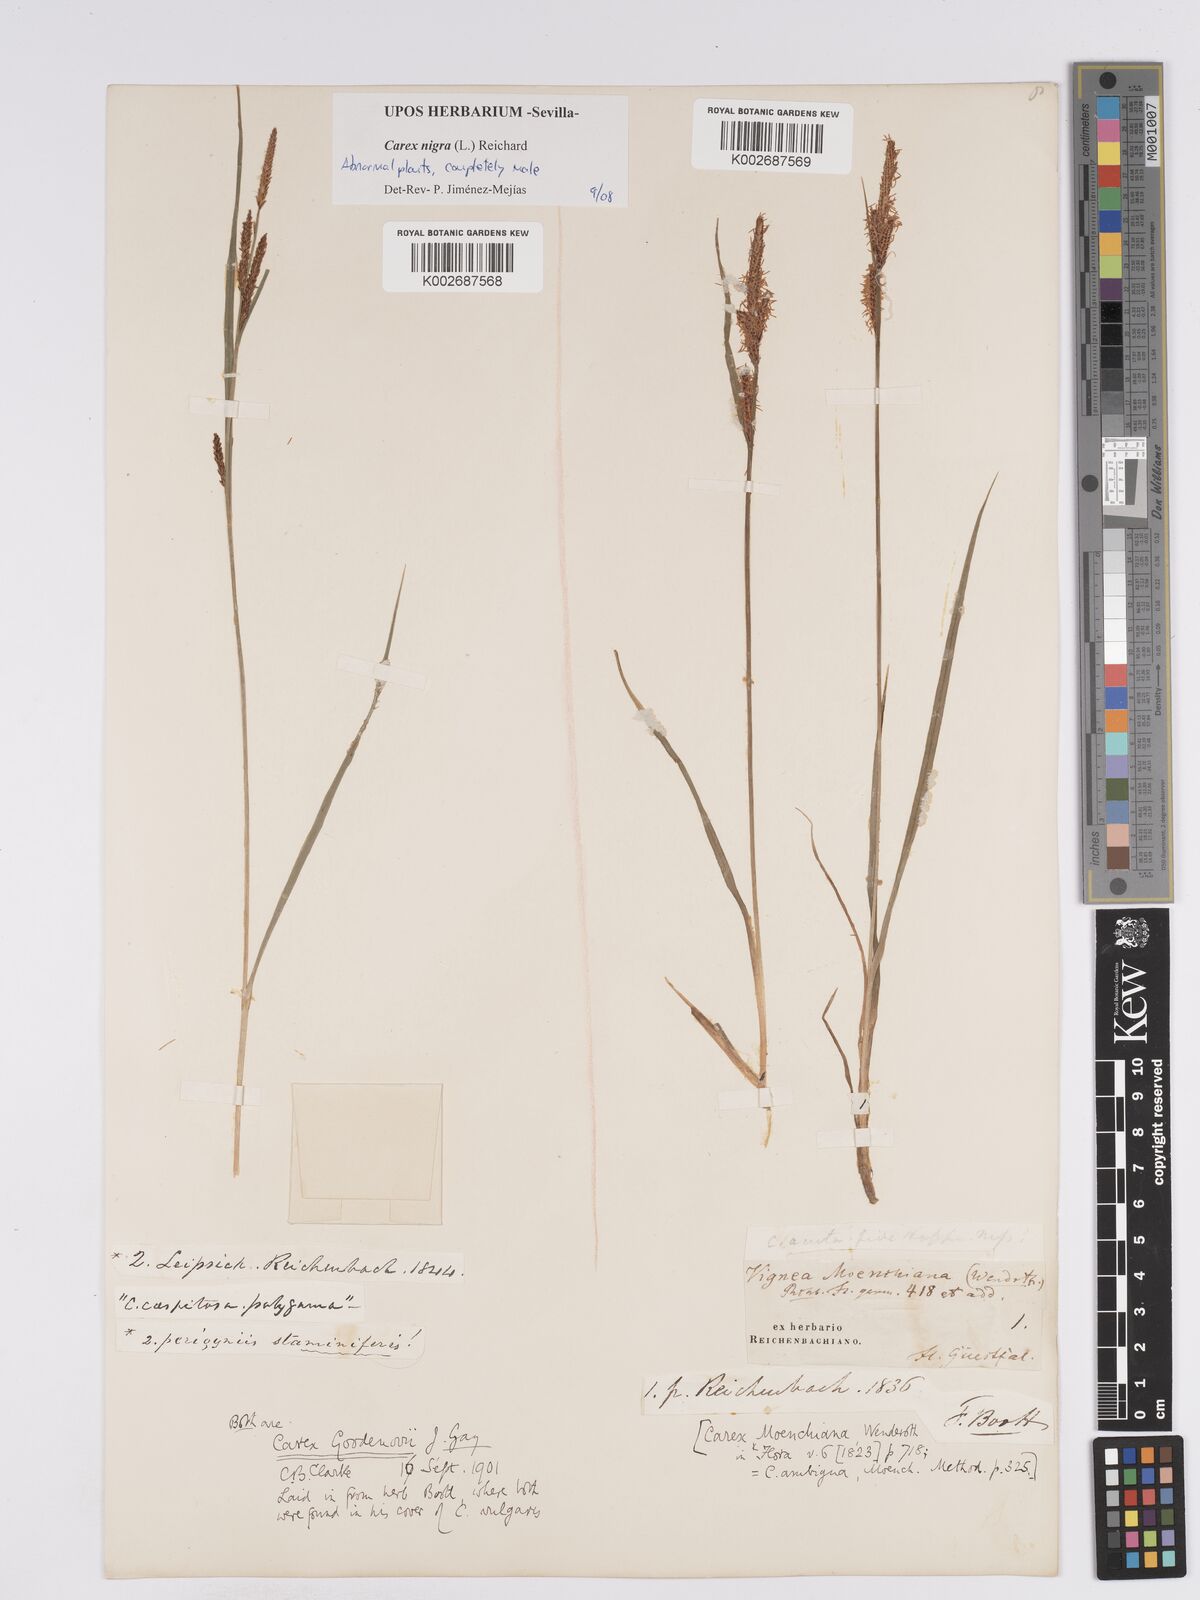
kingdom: Plantae
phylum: Tracheophyta
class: Liliopsida
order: Poales
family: Cyperaceae
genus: Carex
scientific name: Carex nigra
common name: Common sedge
